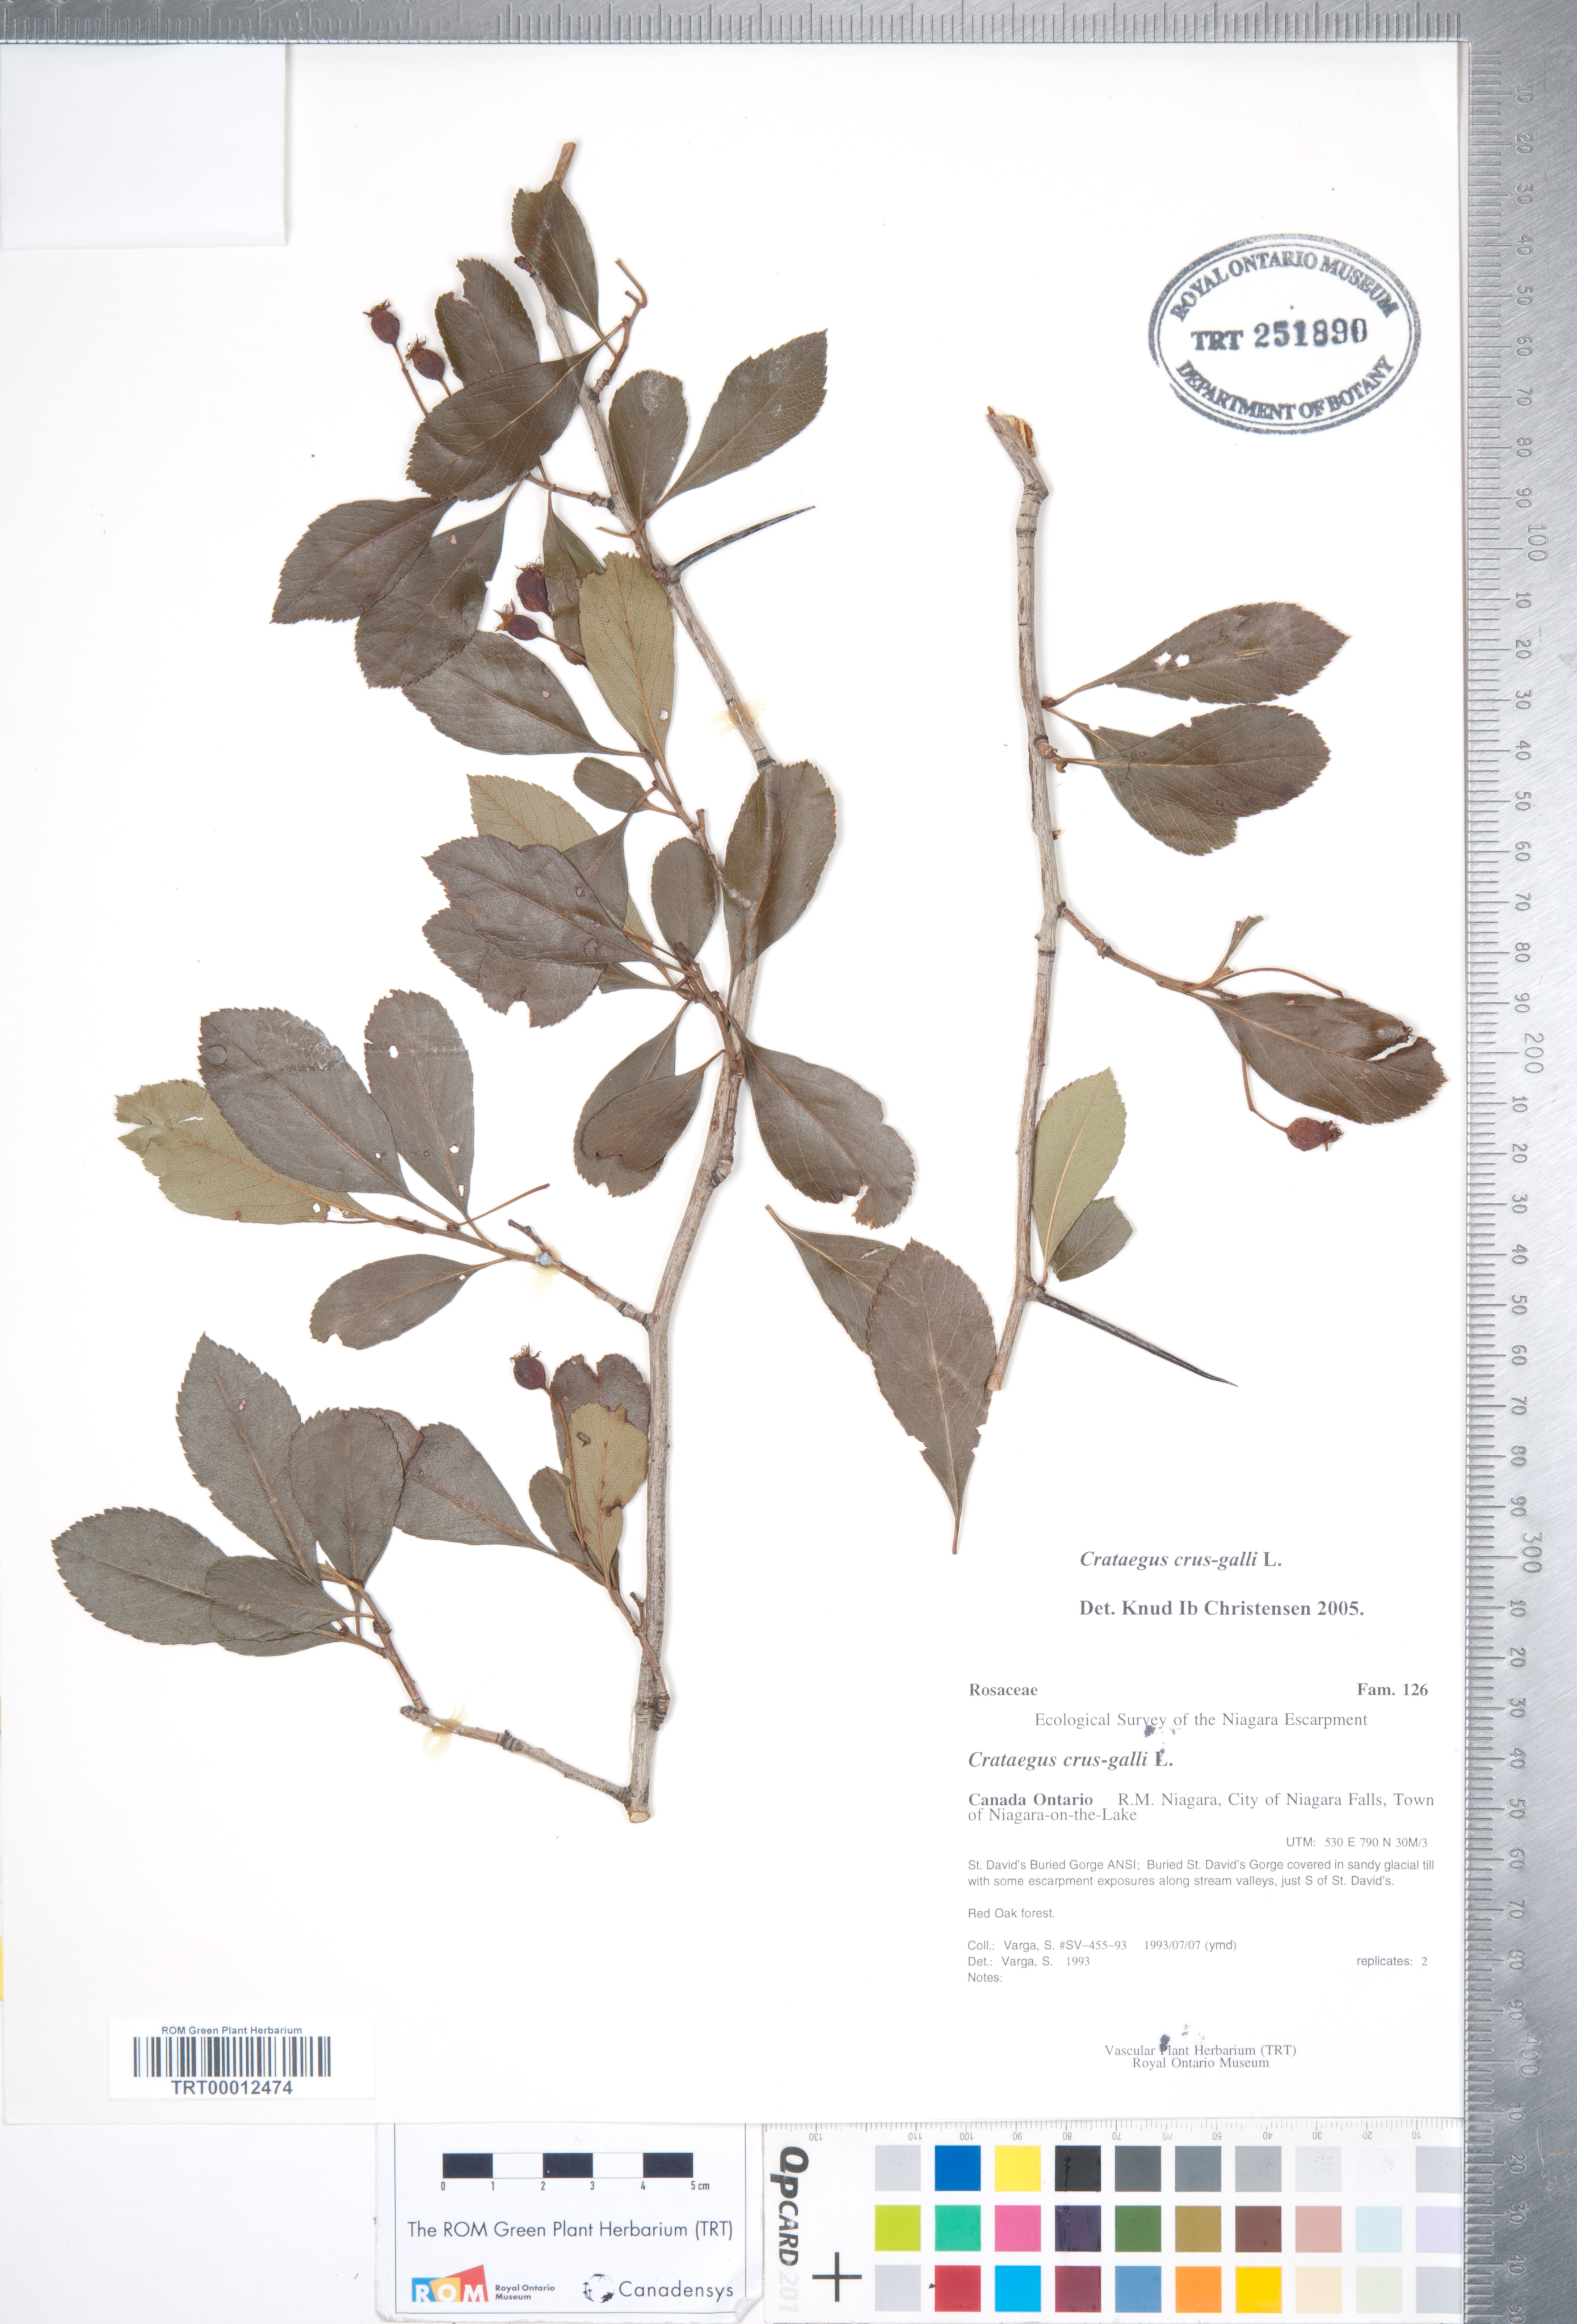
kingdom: Plantae
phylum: Tracheophyta
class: Magnoliopsida
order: Rosales
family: Rosaceae
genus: Crataegus
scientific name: Crataegus crus-galli
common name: Cockspurthorn
